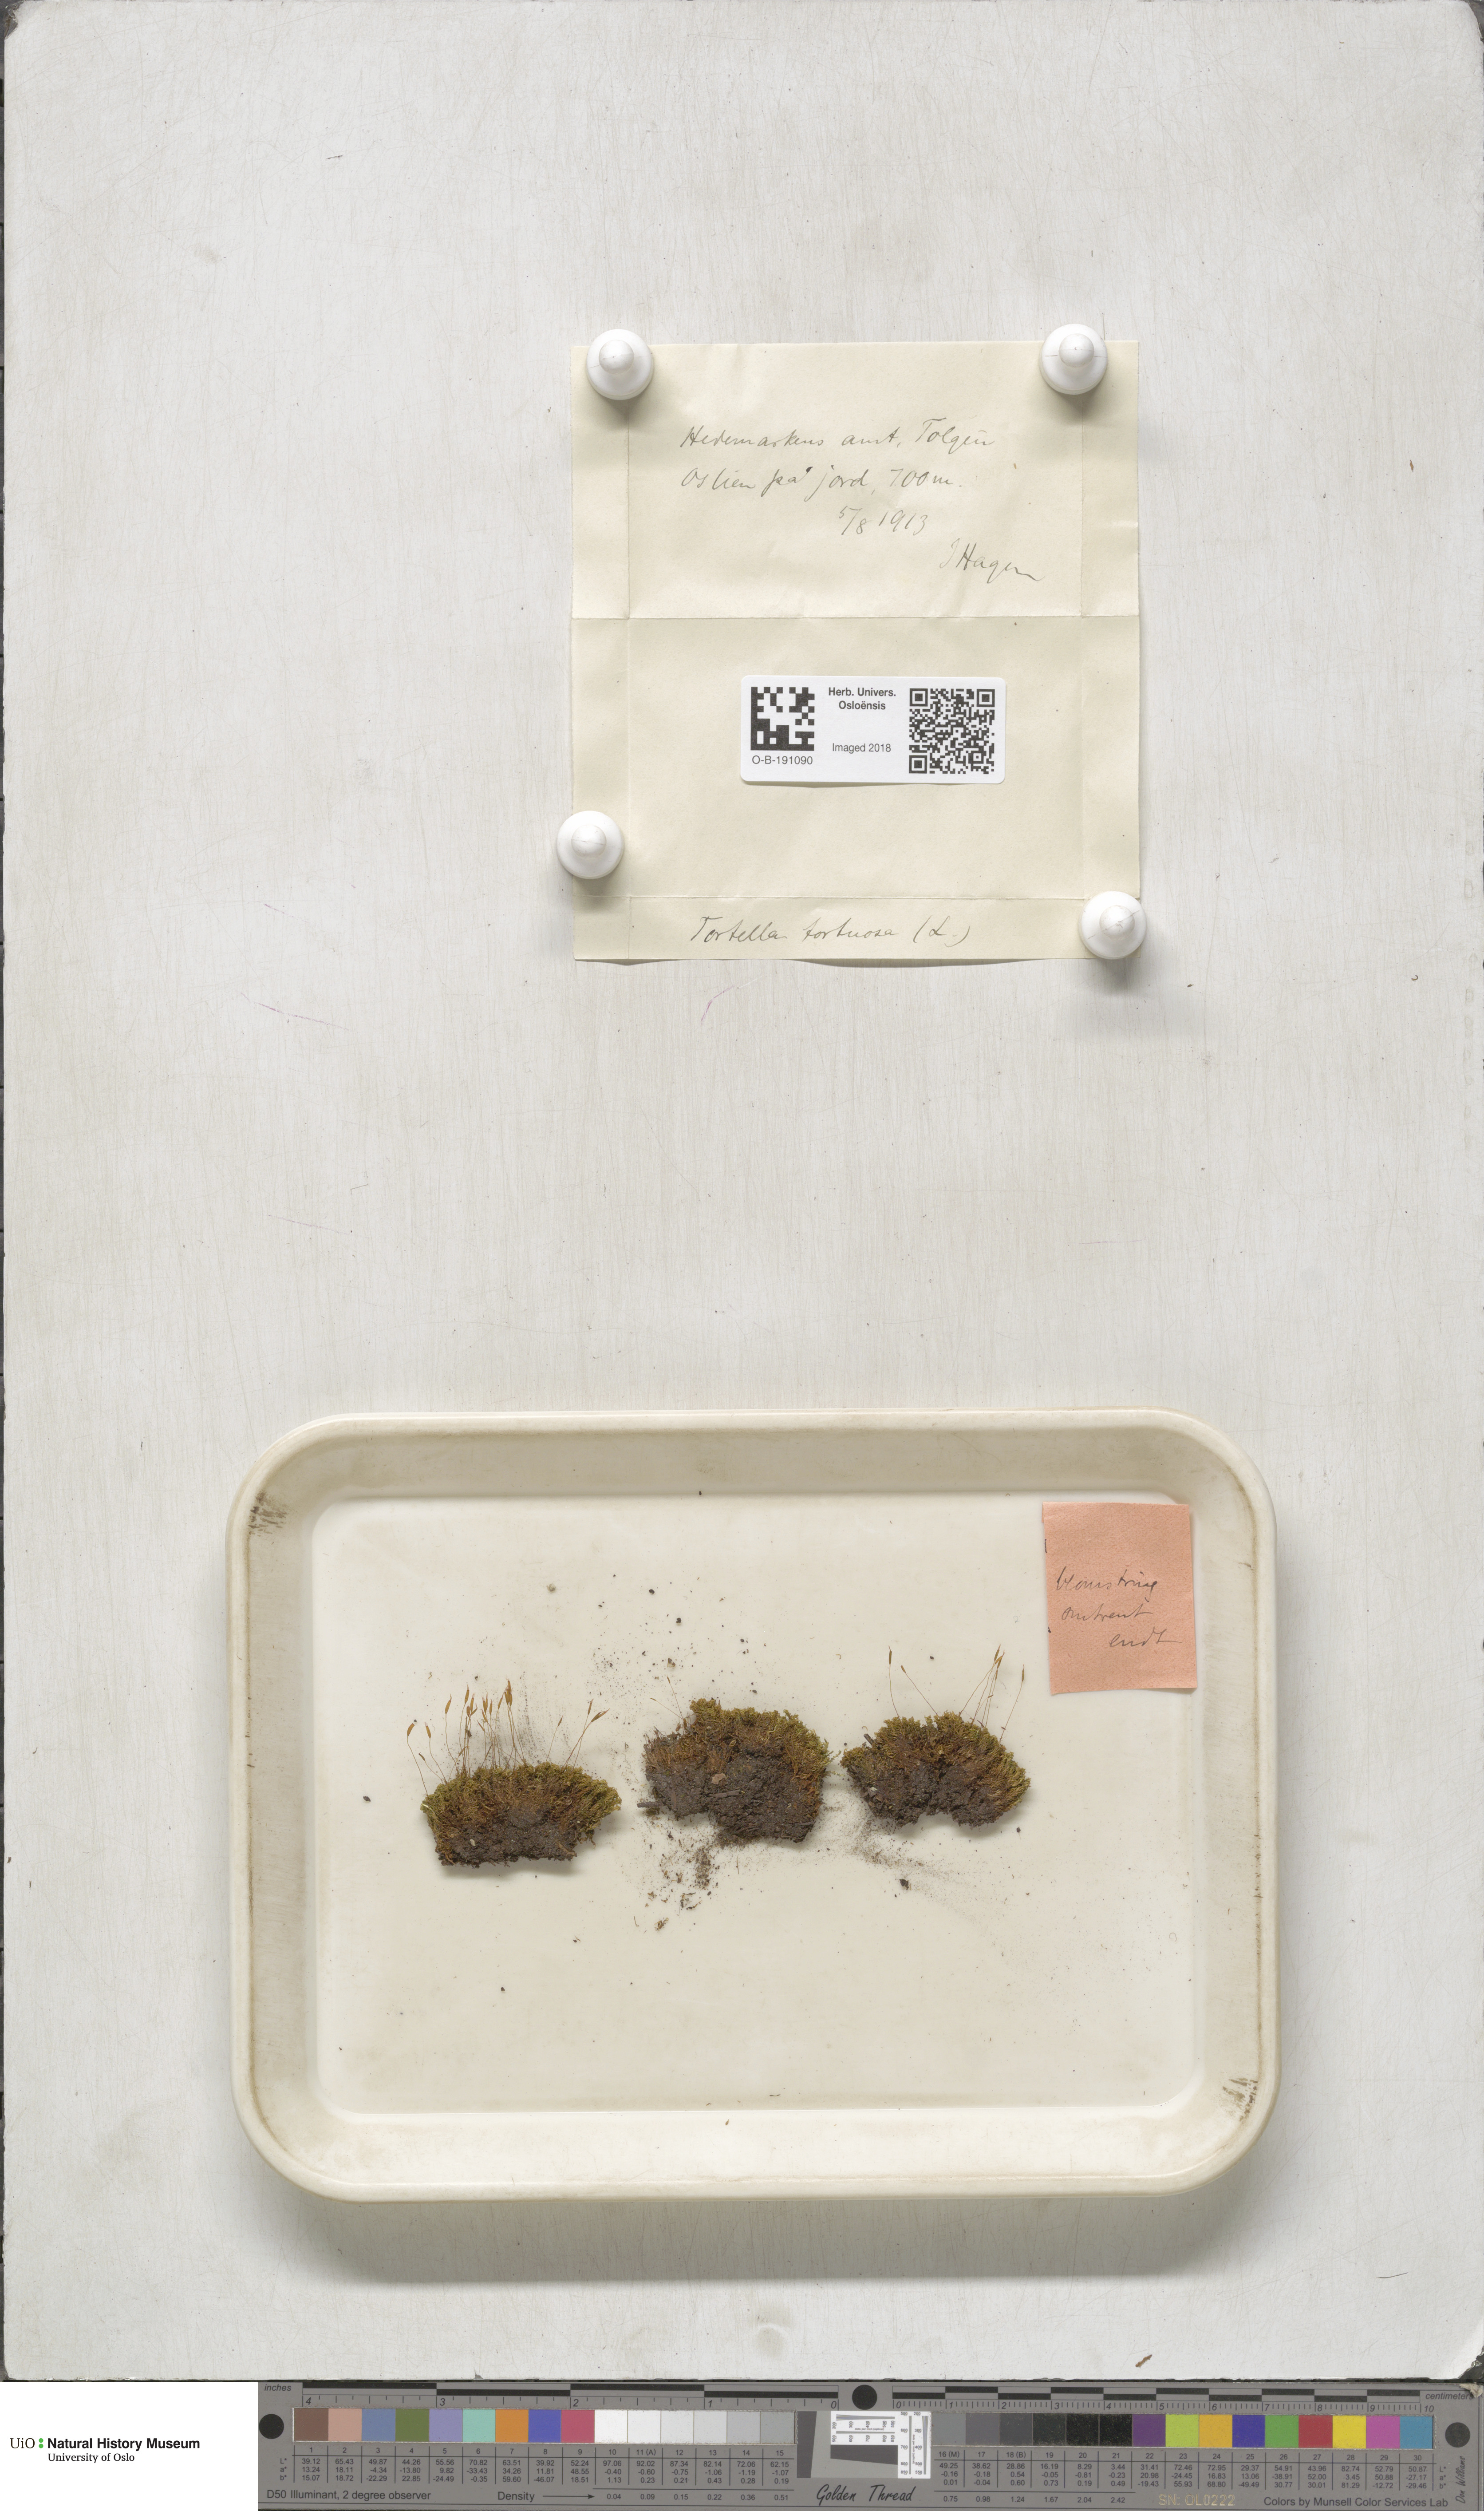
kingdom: Plantae
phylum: Bryophyta
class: Bryopsida
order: Pottiales
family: Pottiaceae
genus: Tortella
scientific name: Tortella tortuosa
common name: Frizzled crisp moss
